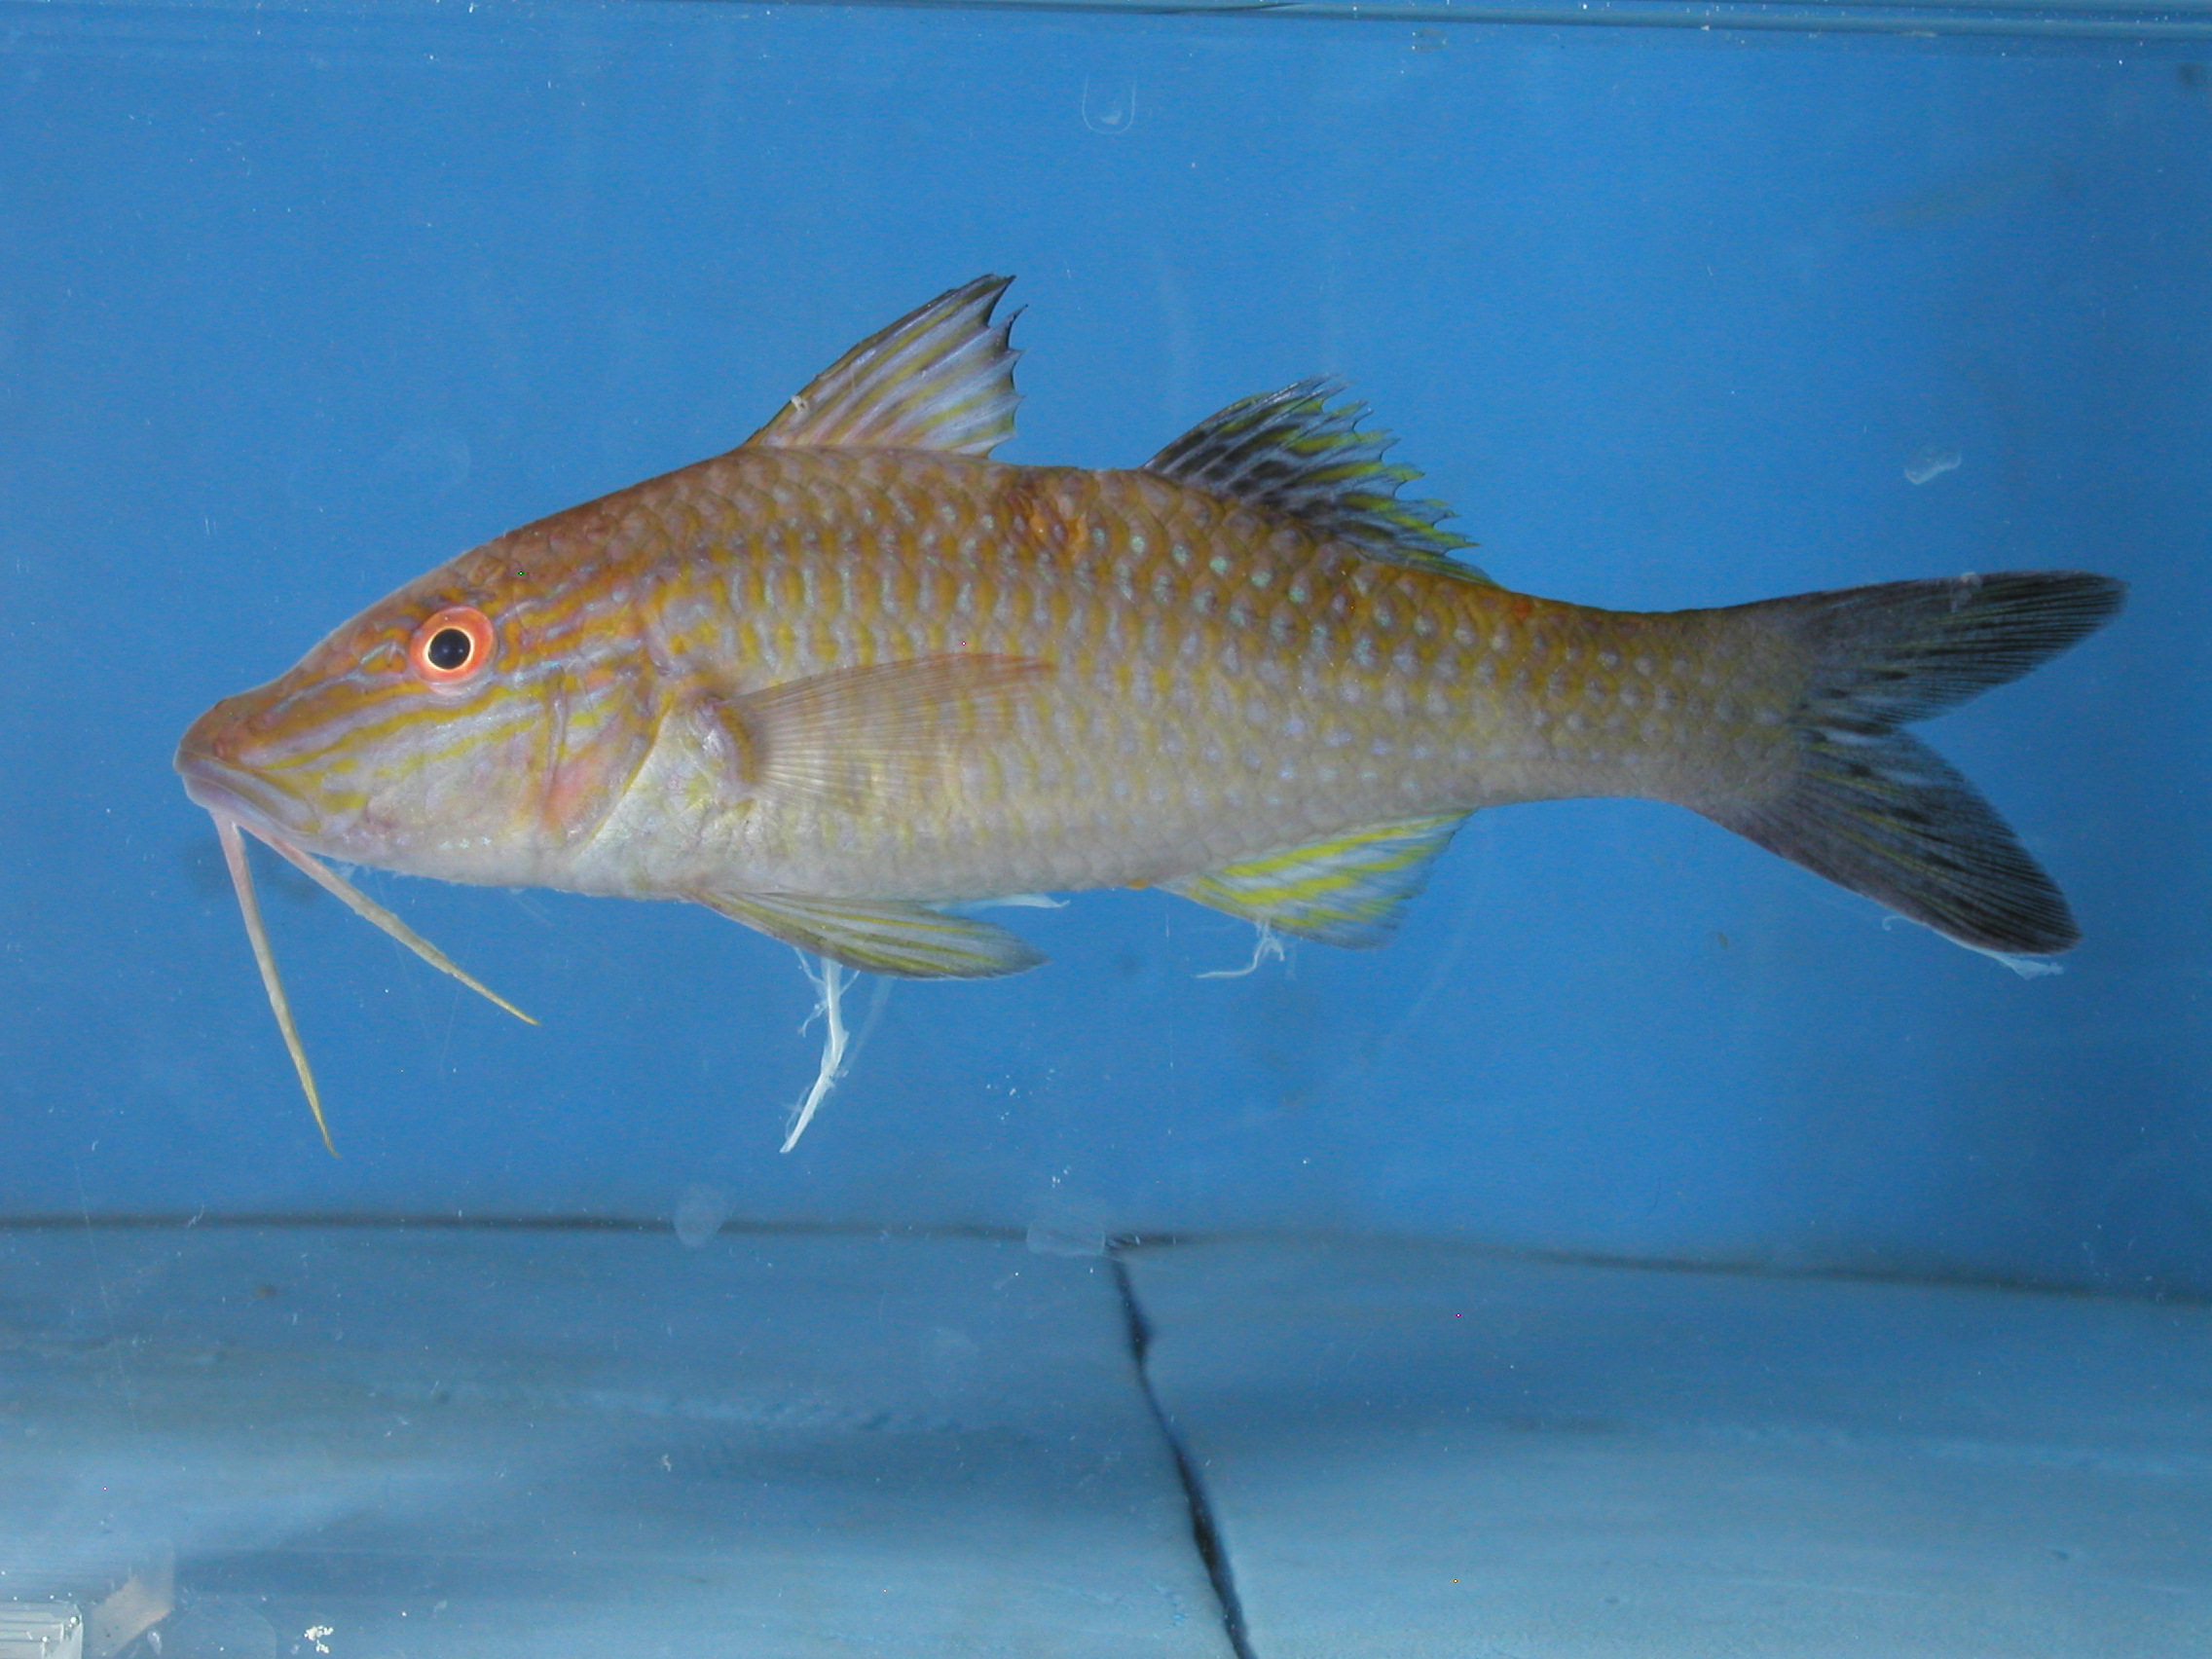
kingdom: Animalia
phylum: Chordata
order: Perciformes
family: Mullidae
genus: Parupeneus
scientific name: Parupeneus cyclostomus
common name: Goldsaddle goatfish
